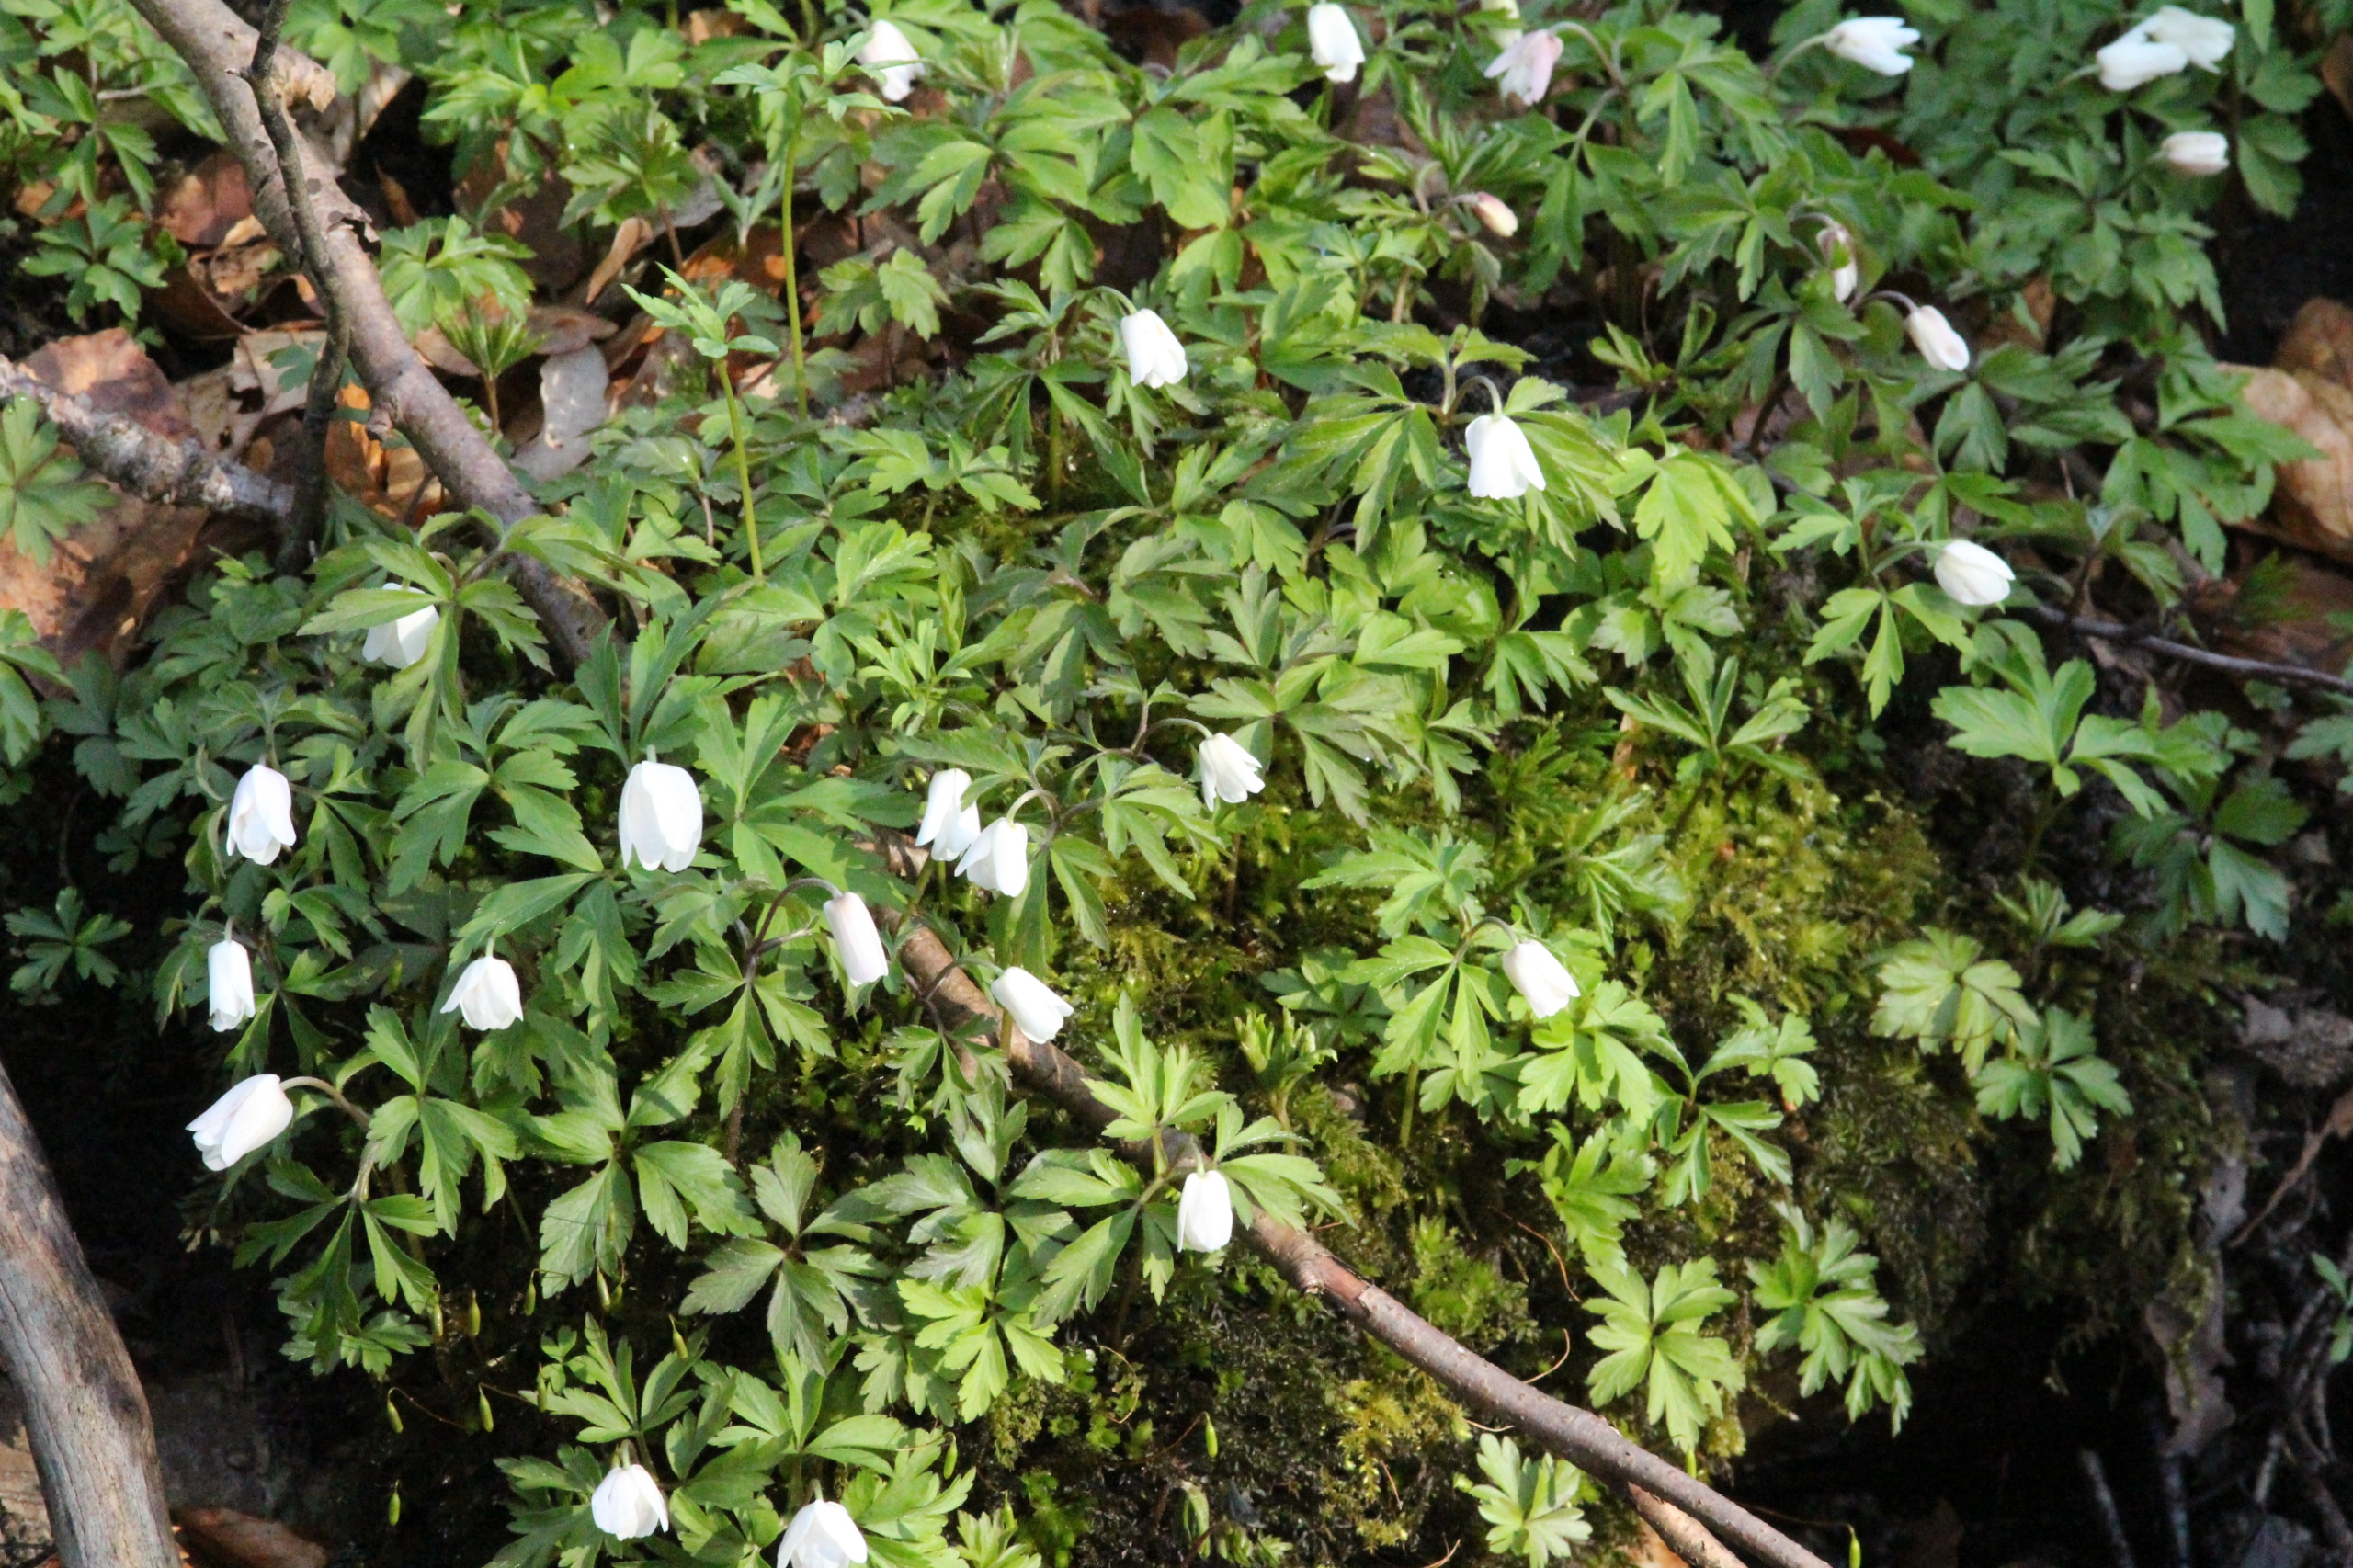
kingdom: Plantae
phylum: Tracheophyta
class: Magnoliopsida
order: Ranunculales
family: Ranunculaceae
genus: Anemone
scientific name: Anemone nemorosa
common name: Hvid anemone
